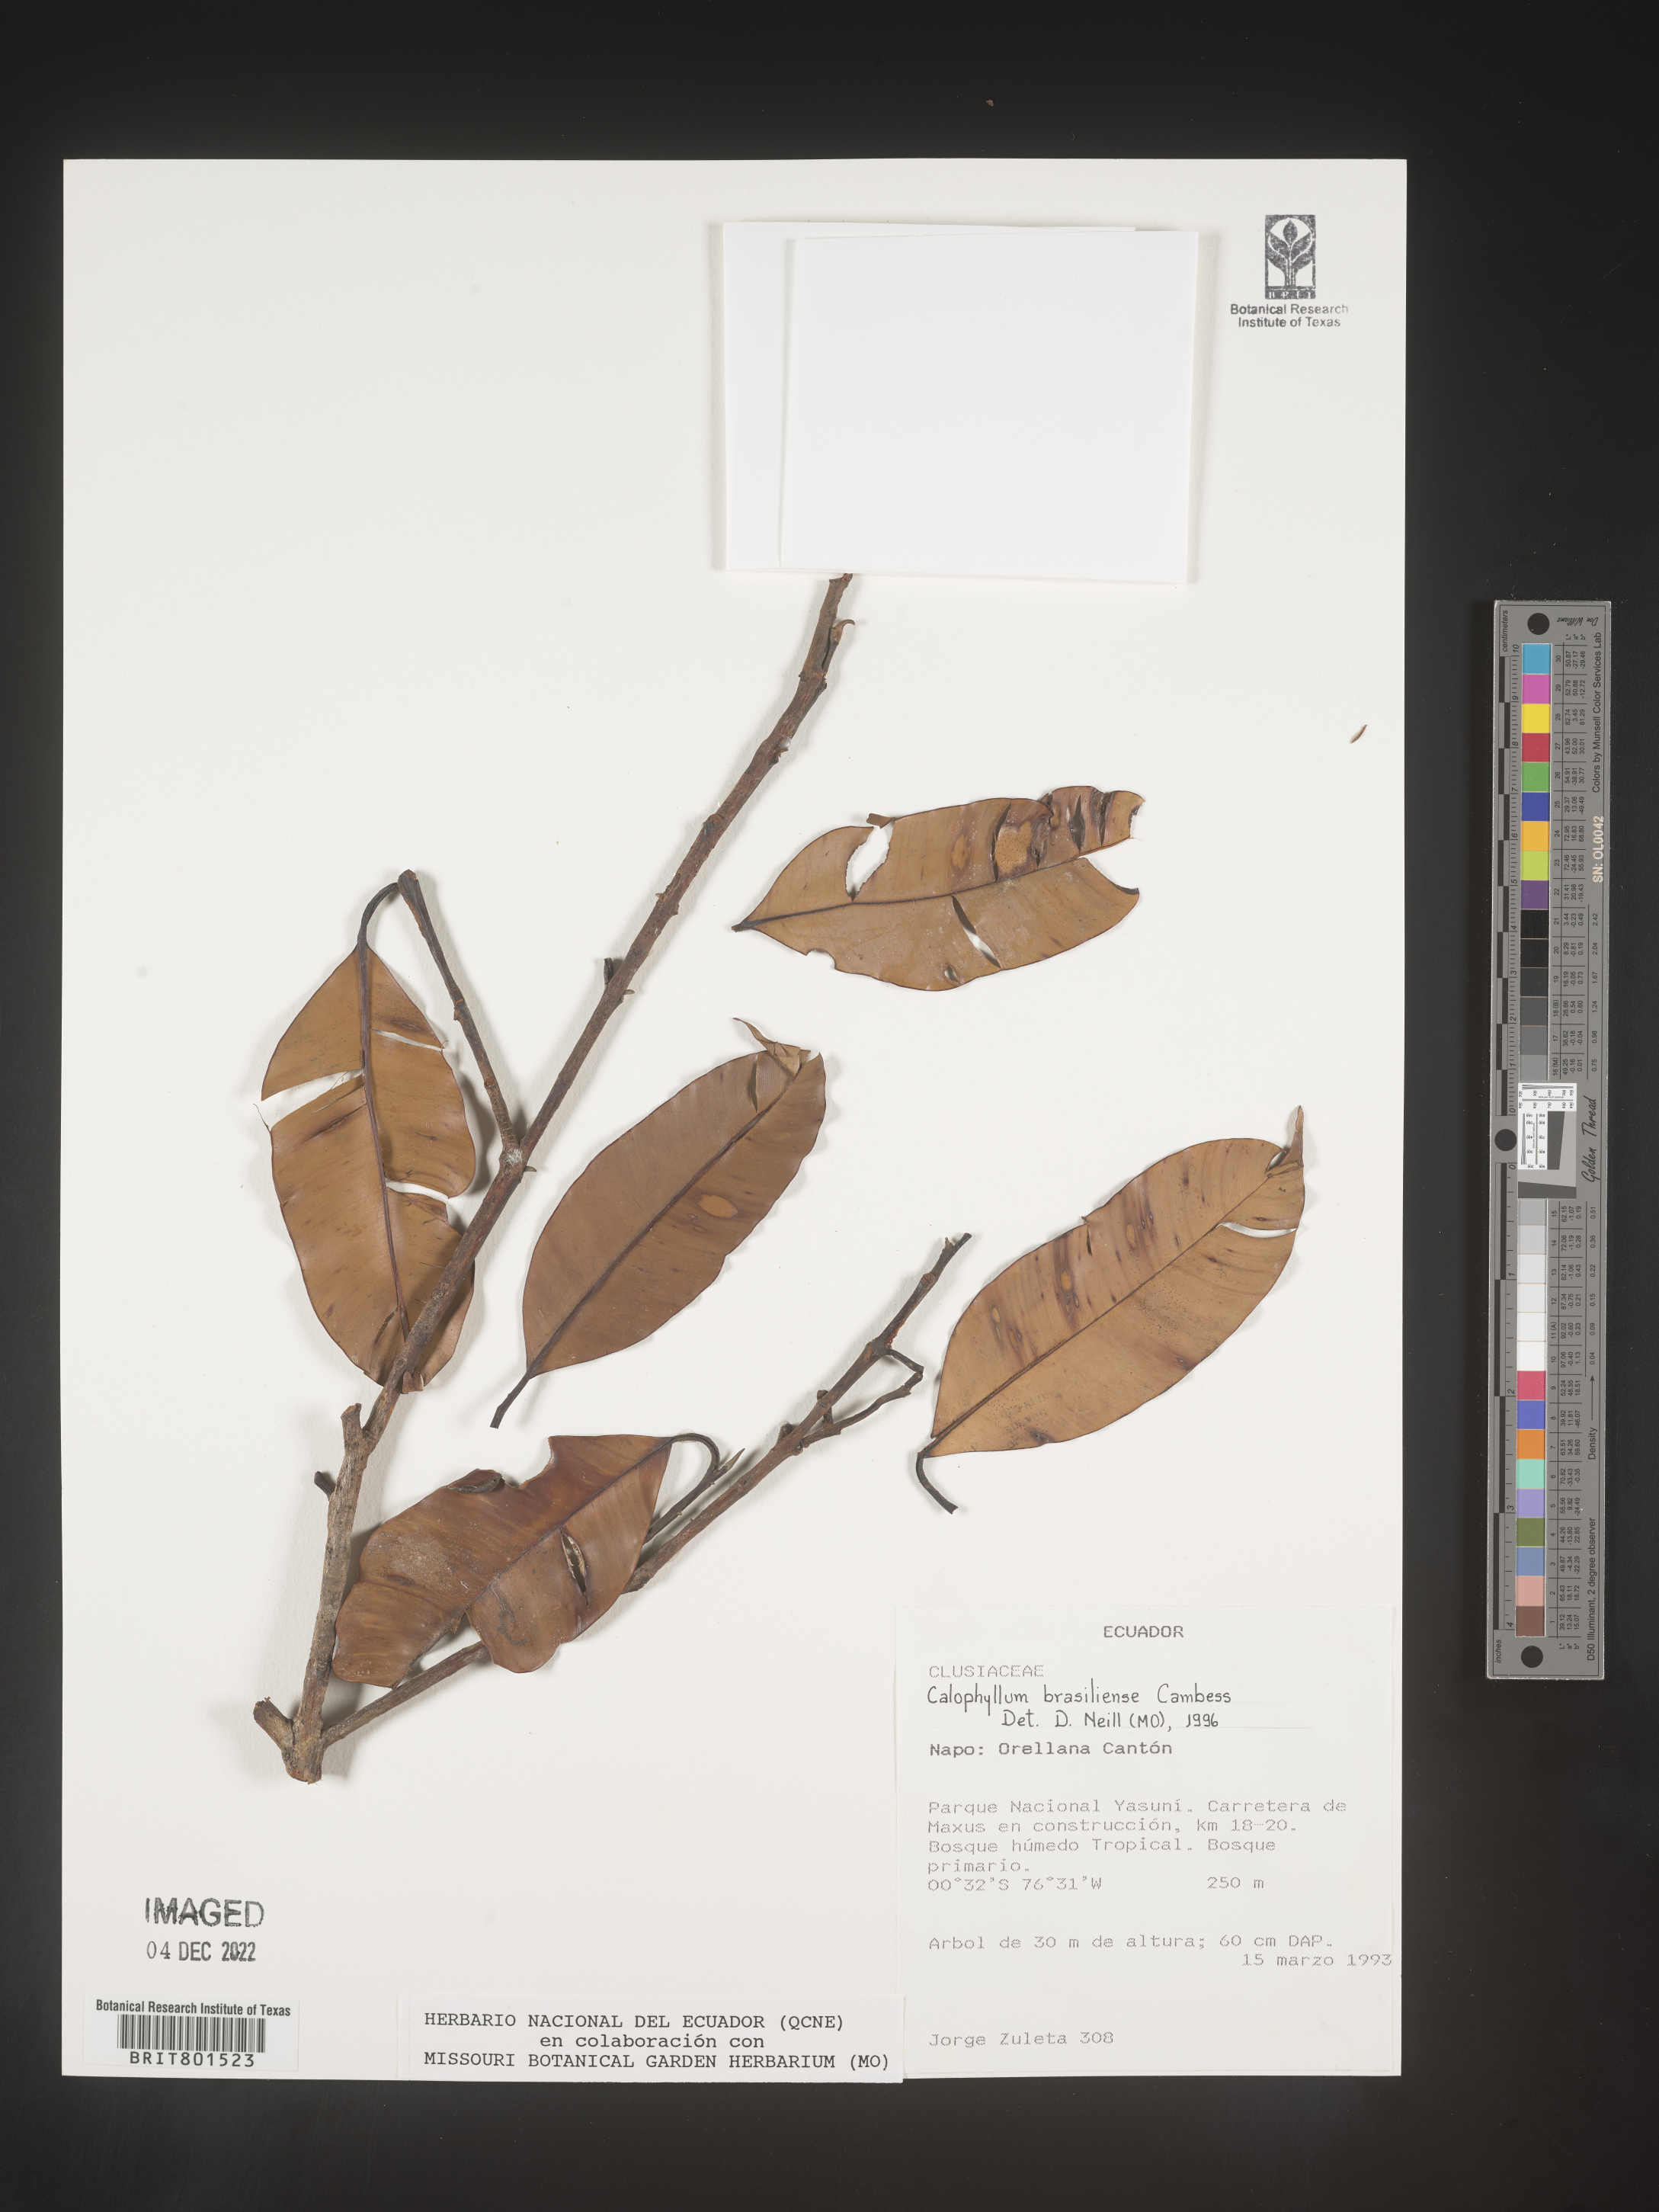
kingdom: Plantae
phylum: Tracheophyta
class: Magnoliopsida
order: Malpighiales
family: Calophyllaceae
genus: Calophyllum
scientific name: Calophyllum brasiliense
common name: Santa maria
